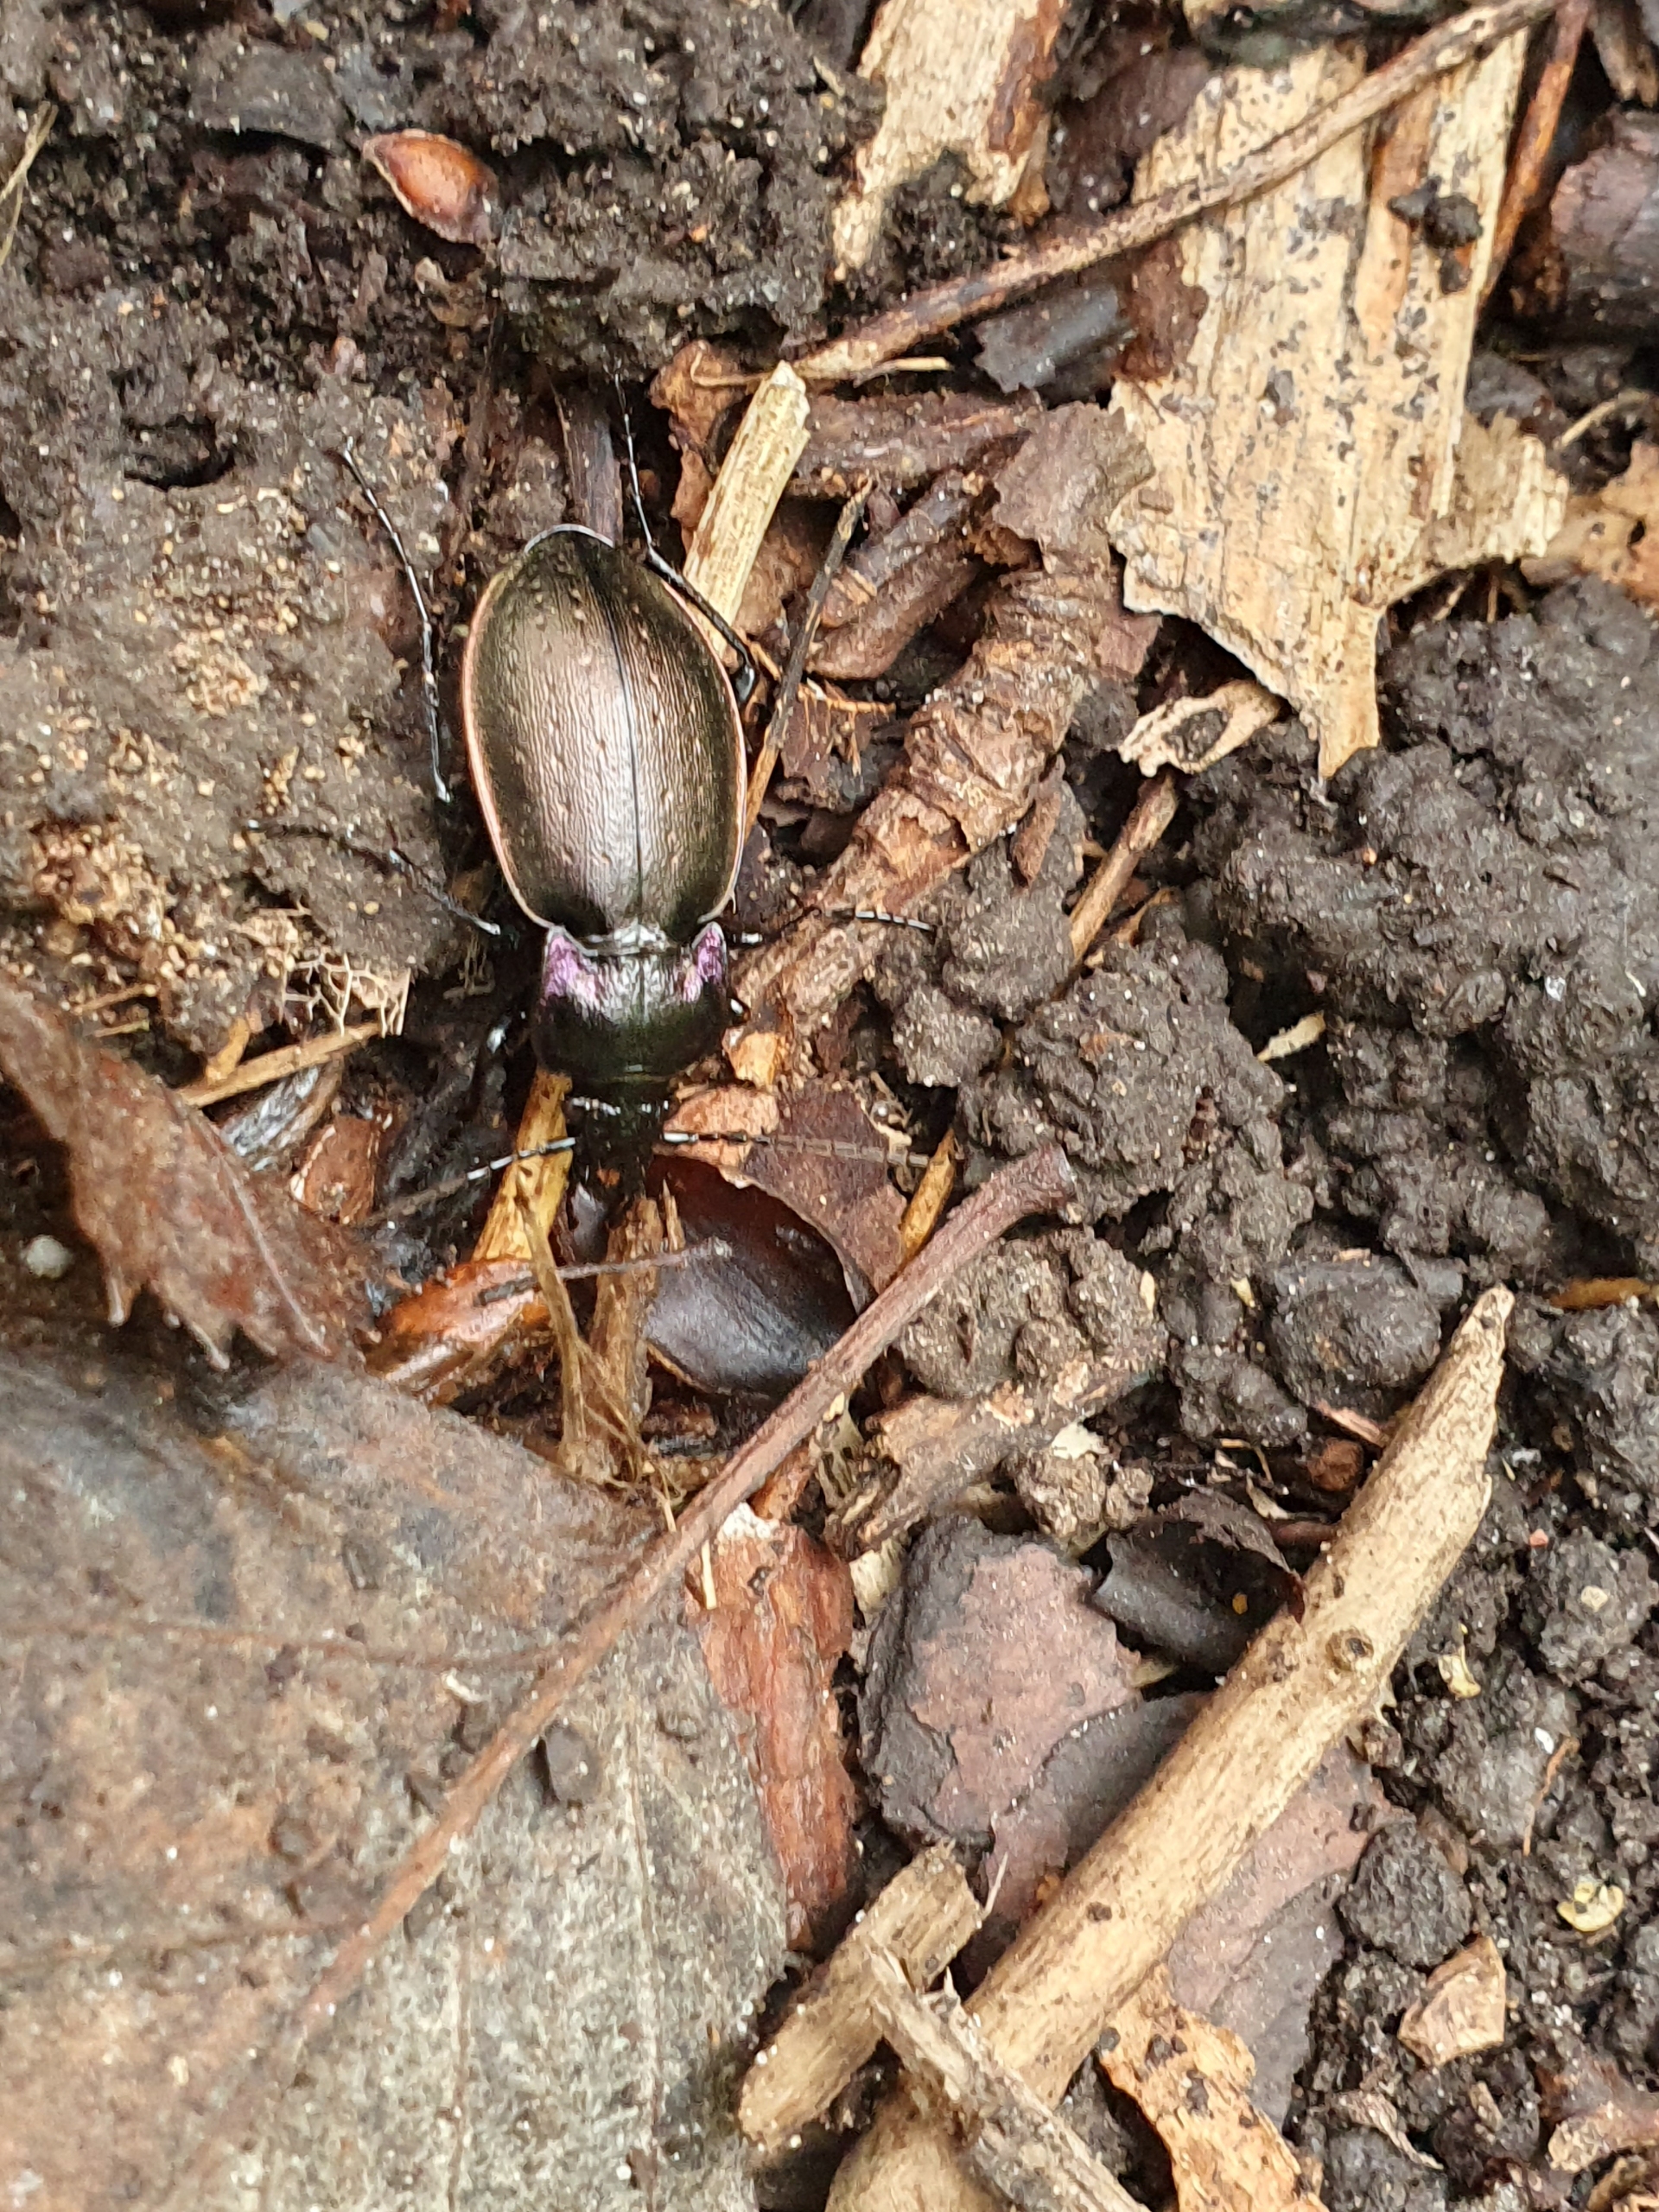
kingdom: Animalia
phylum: Arthropoda
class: Insecta
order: Coleoptera
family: Carabidae
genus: Carabus
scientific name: Carabus nemoralis
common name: Kratløber
